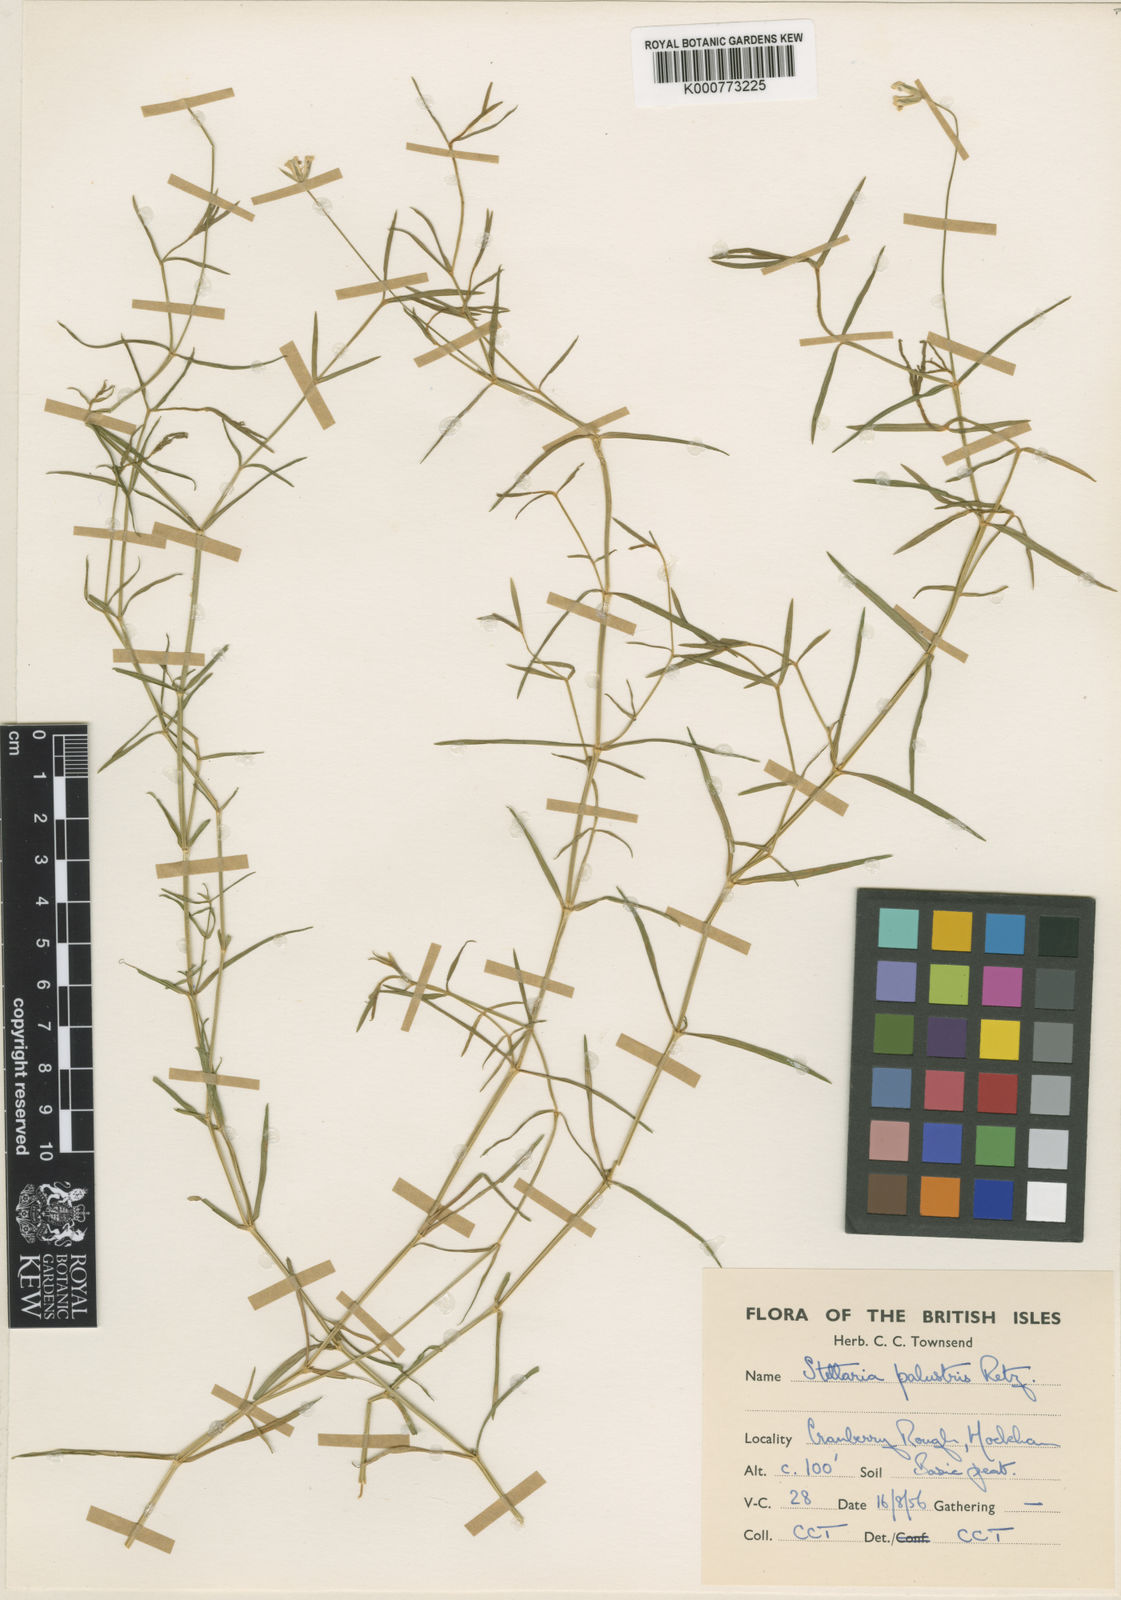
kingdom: Plantae
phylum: Tracheophyta
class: Magnoliopsida
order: Caryophyllales
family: Caryophyllaceae
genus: Stellaria
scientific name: Stellaria
